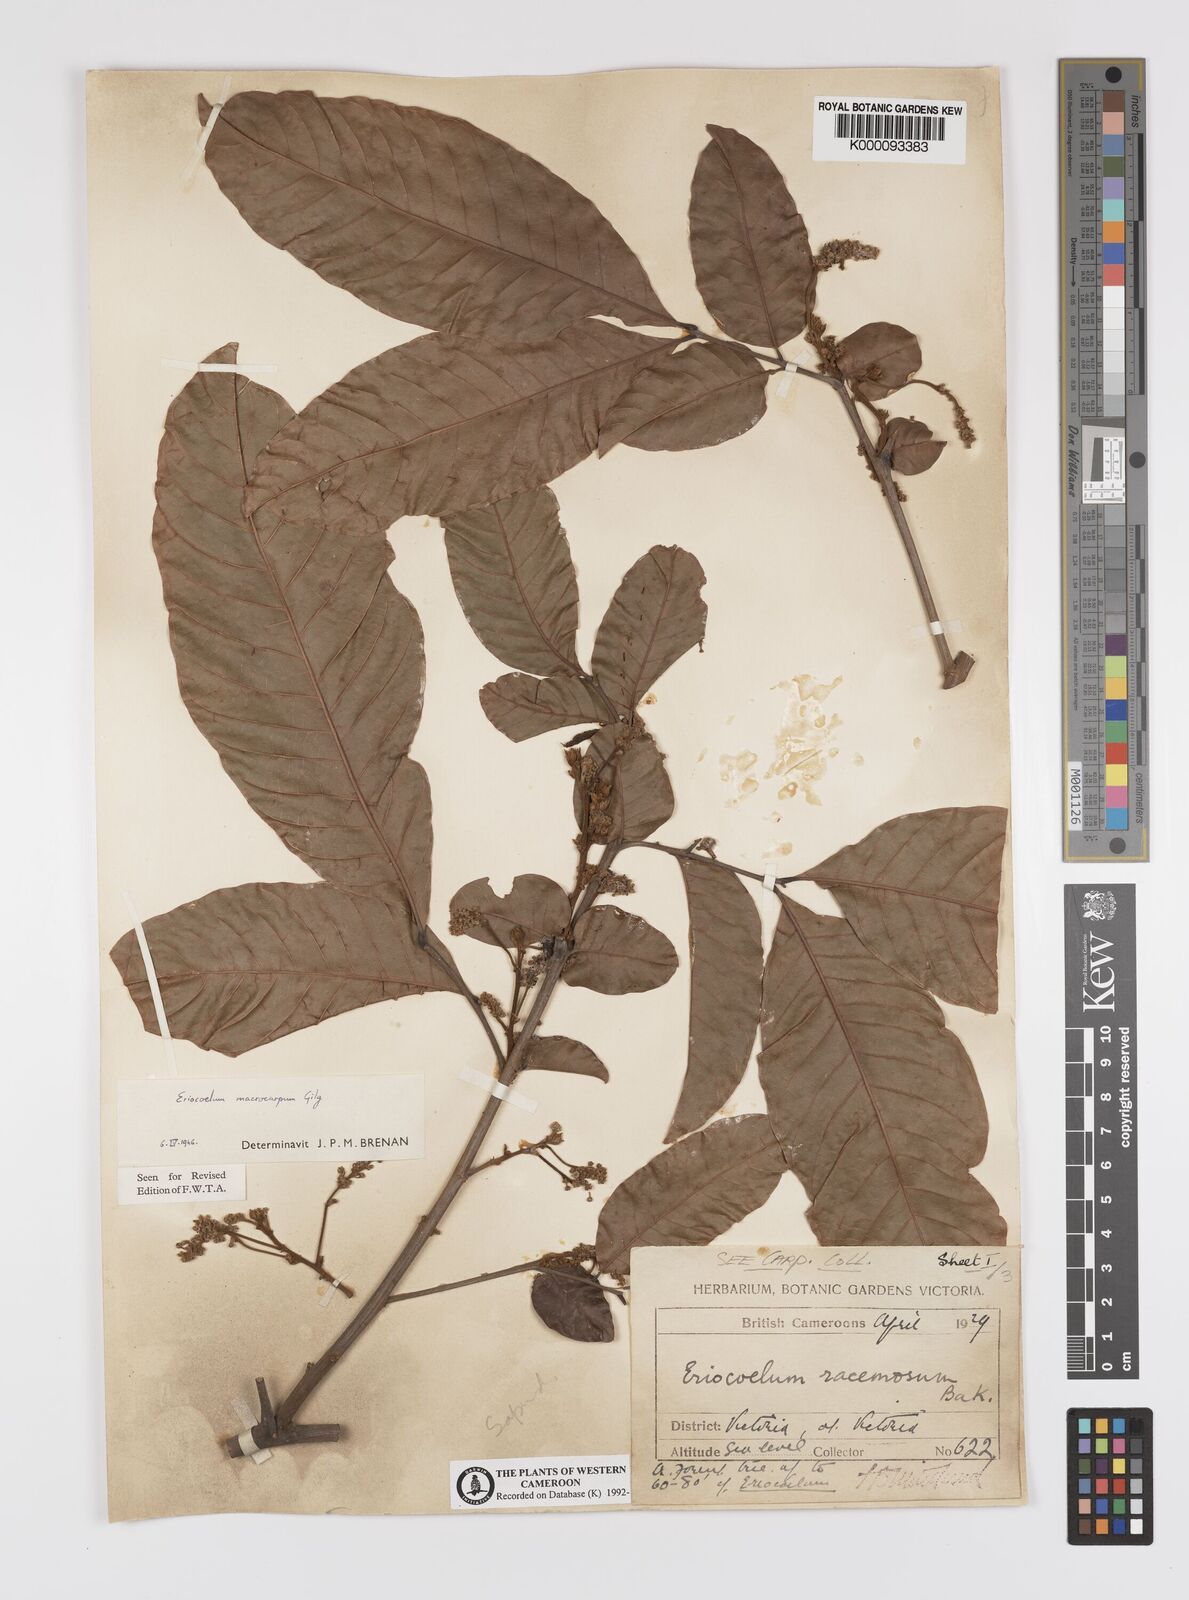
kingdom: Plantae
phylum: Tracheophyta
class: Magnoliopsida
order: Sapindales
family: Sapindaceae
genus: Eriocoelum
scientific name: Eriocoelum
